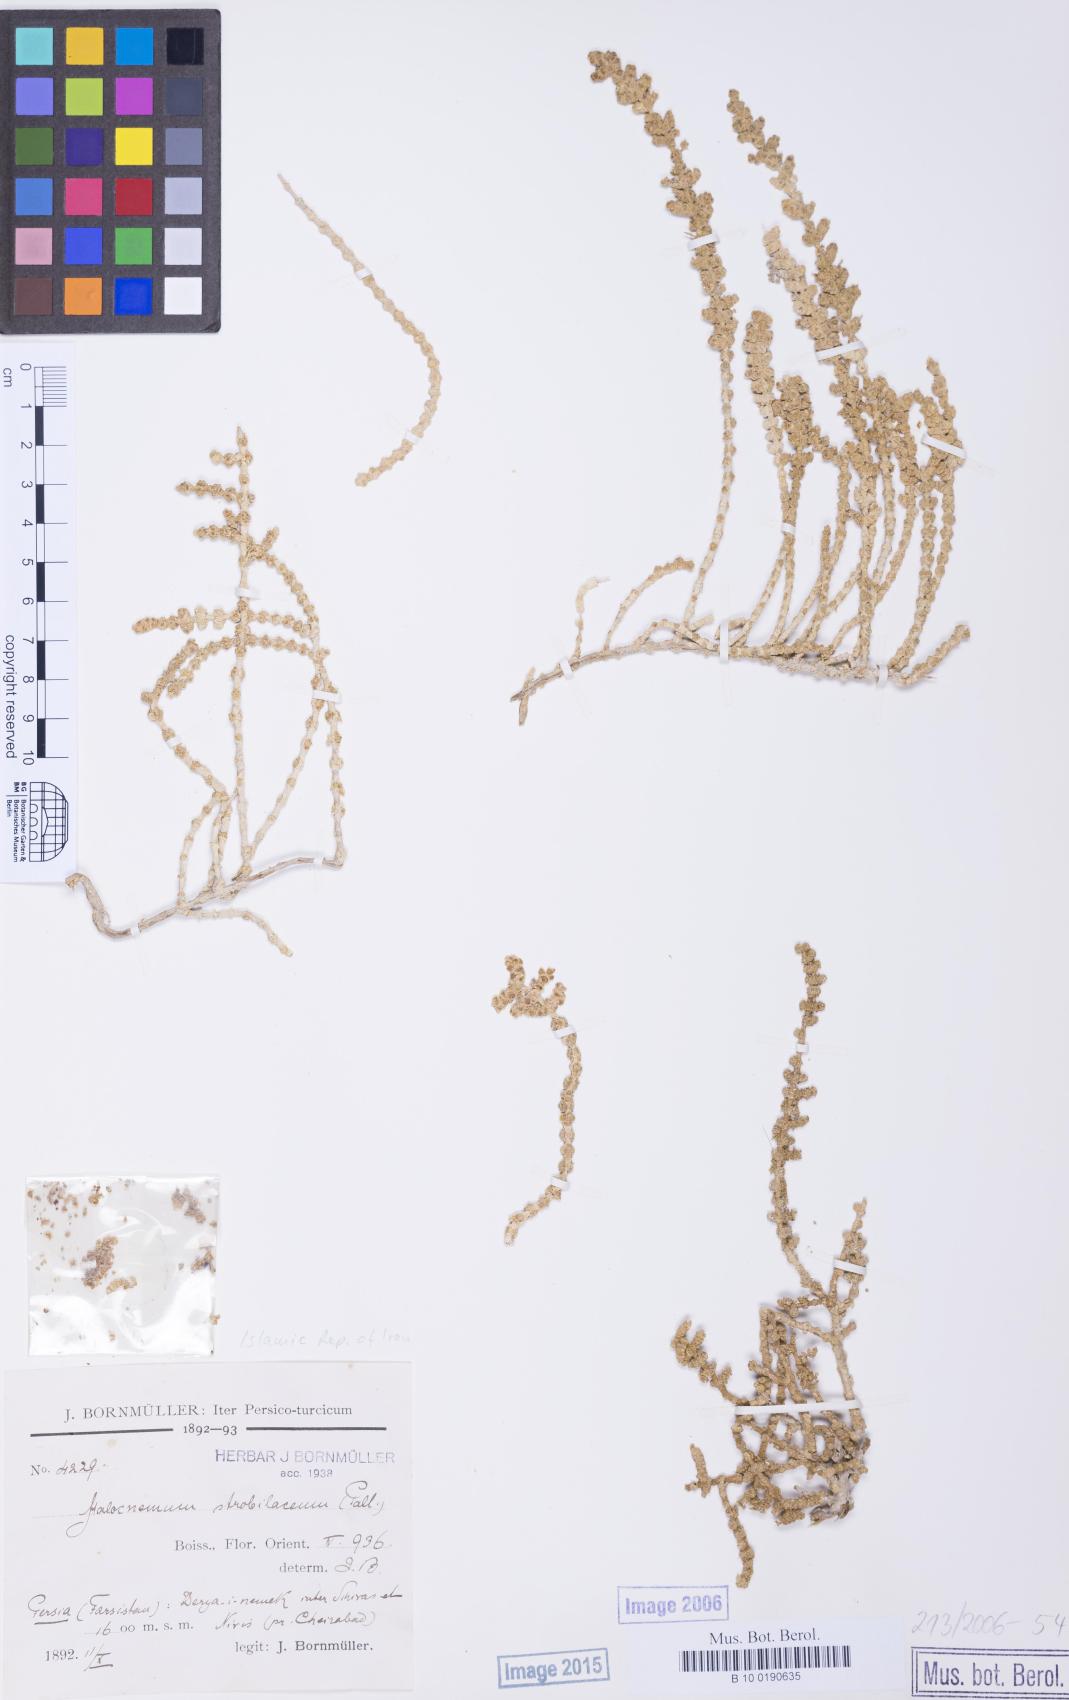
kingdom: Plantae
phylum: Tracheophyta
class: Magnoliopsida
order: Caryophyllales
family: Amaranthaceae
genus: Halocnemum
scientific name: Halocnemum strobilaceum
